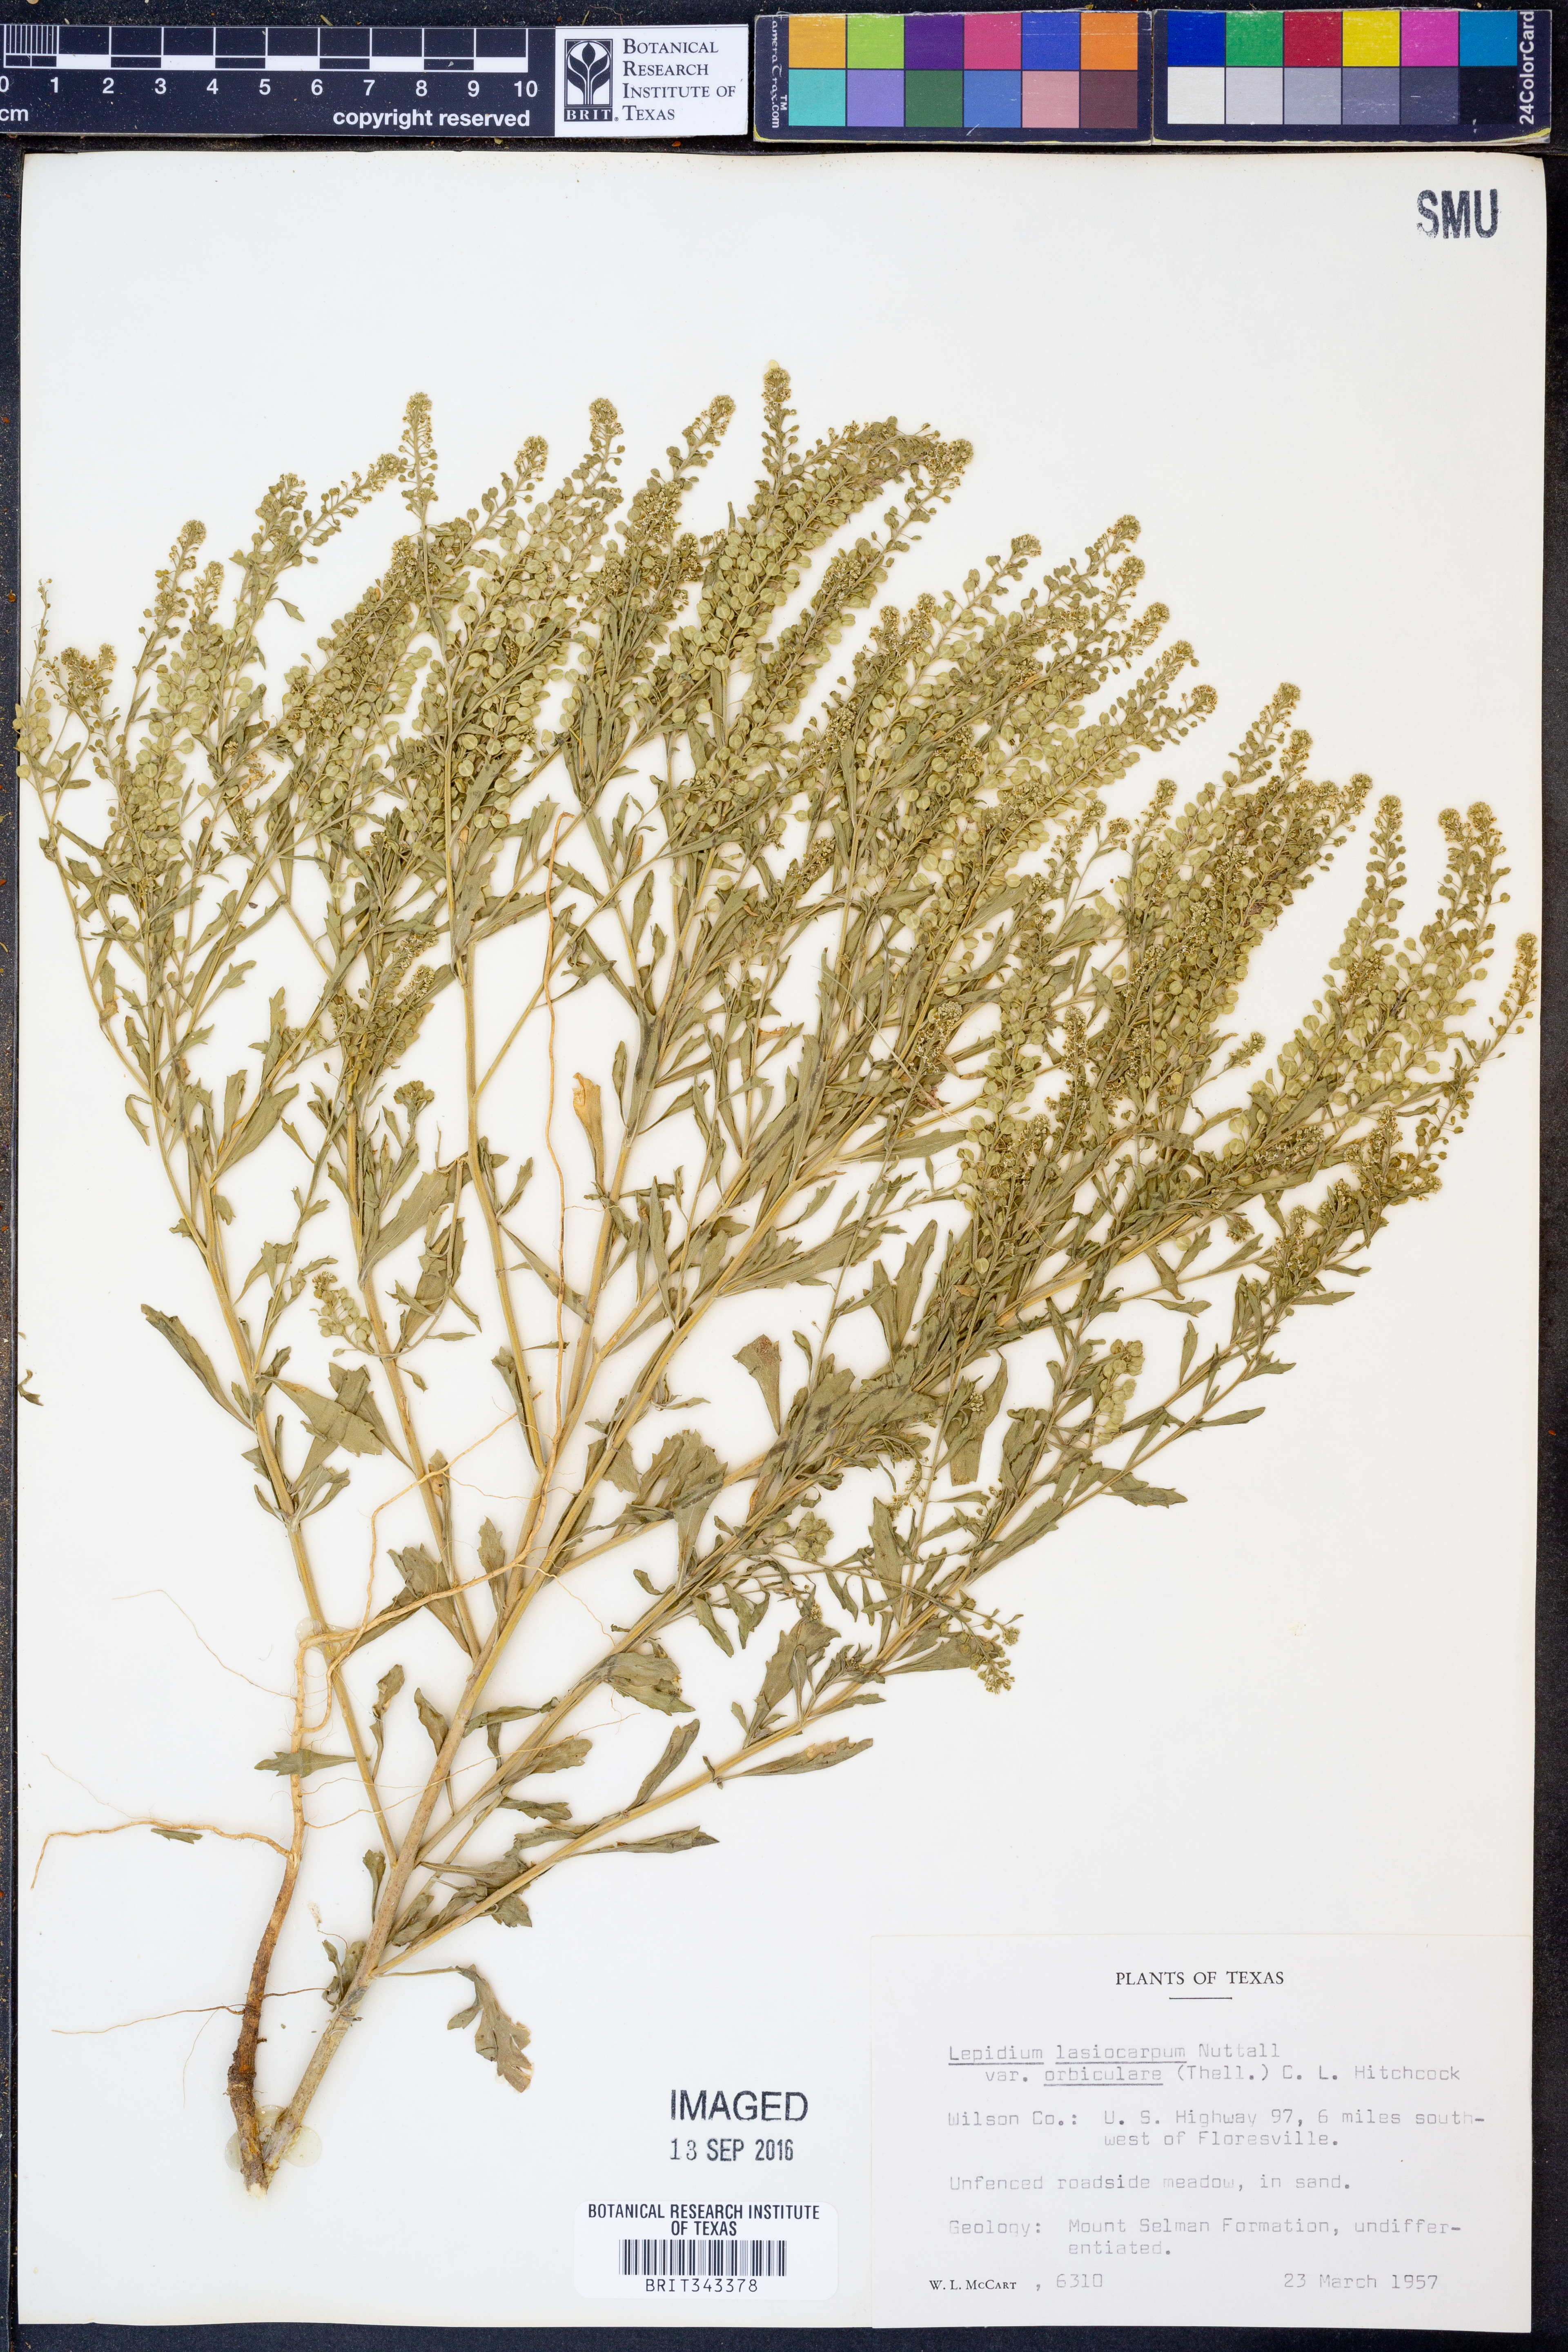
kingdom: Plantae
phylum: Tracheophyta
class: Magnoliopsida
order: Brassicales
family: Brassicaceae
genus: Lepidium
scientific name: Lepidium austrinum
